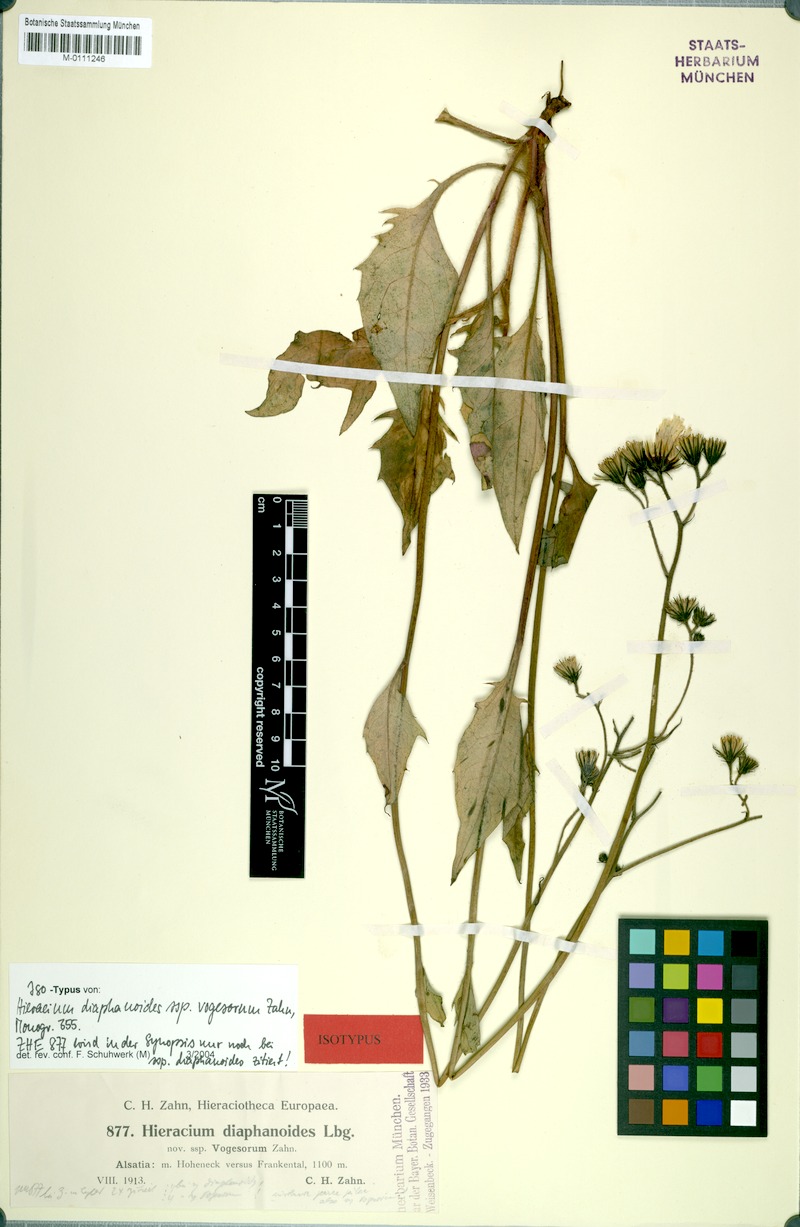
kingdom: Plantae
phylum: Tracheophyta
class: Magnoliopsida
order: Asterales
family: Asteraceae
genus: Hieracium
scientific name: Hieracium diaphanoides
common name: Fine-bracted hawkweed
